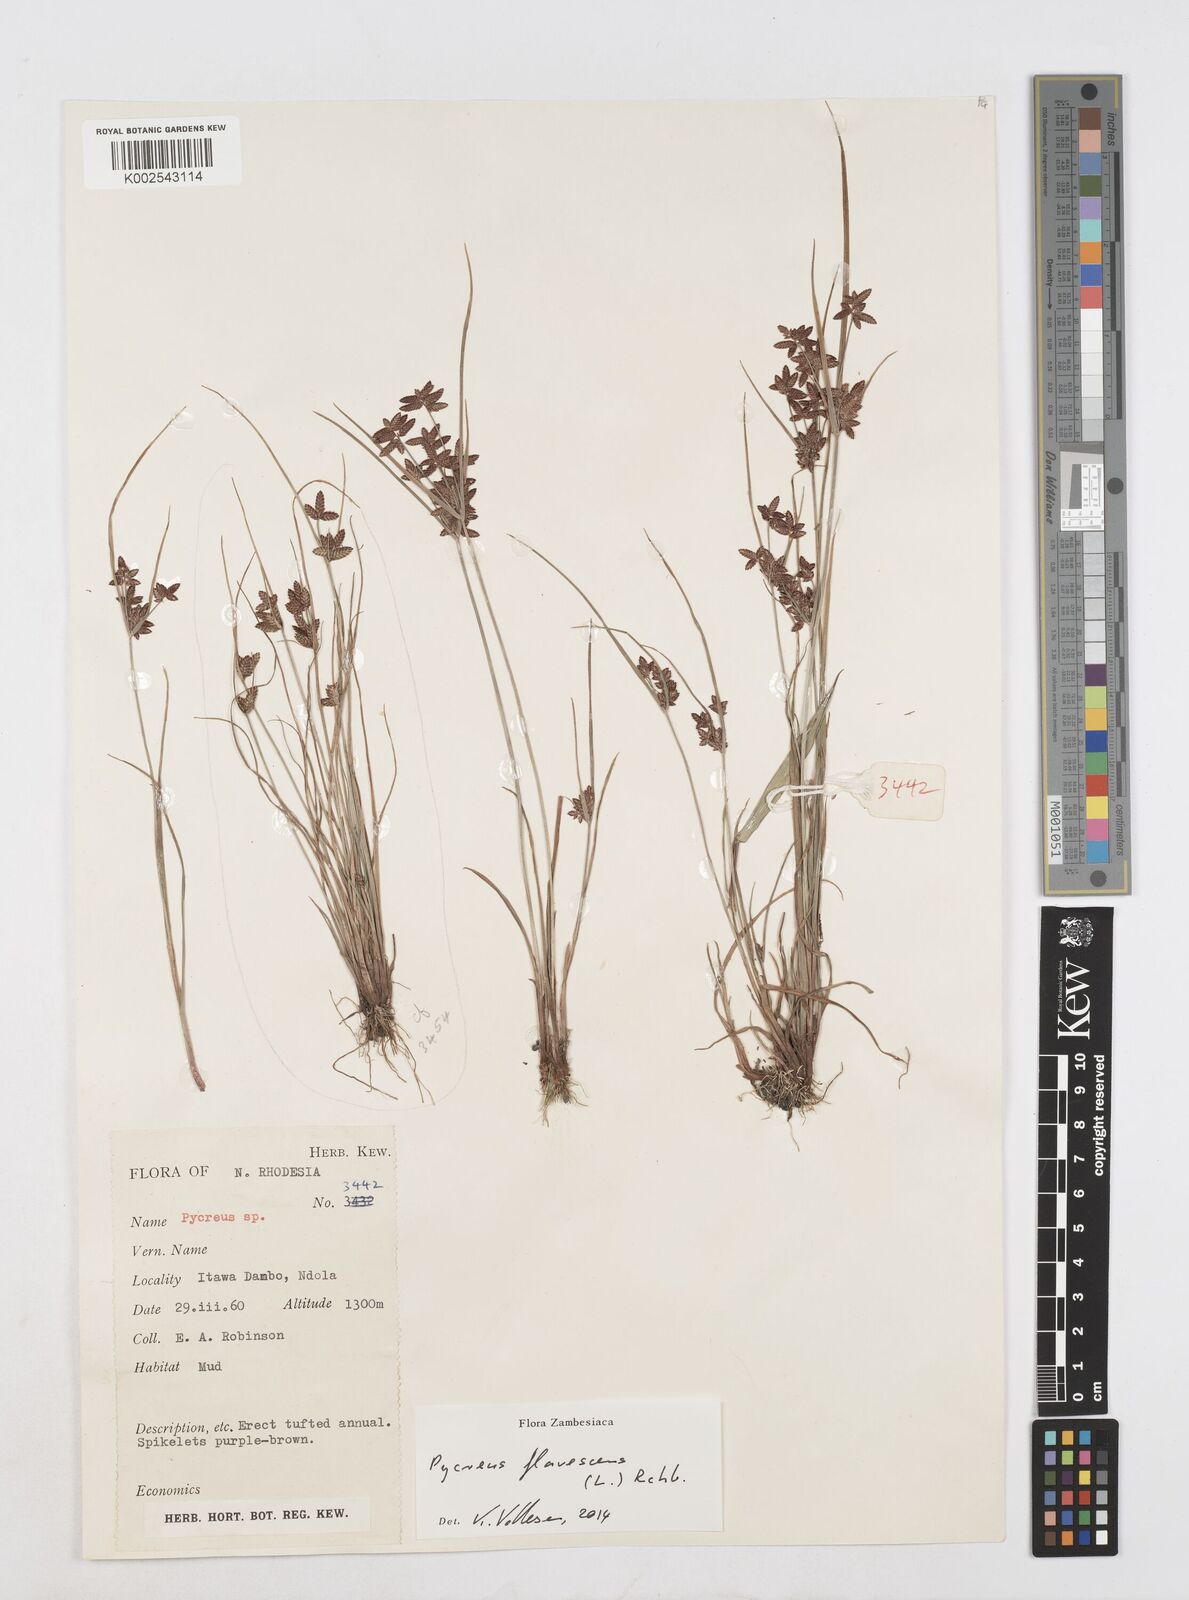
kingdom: Plantae
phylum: Tracheophyta
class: Liliopsida
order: Poales
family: Cyperaceae
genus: Cyperus
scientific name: Cyperus flavescens
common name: Yellow galingale
